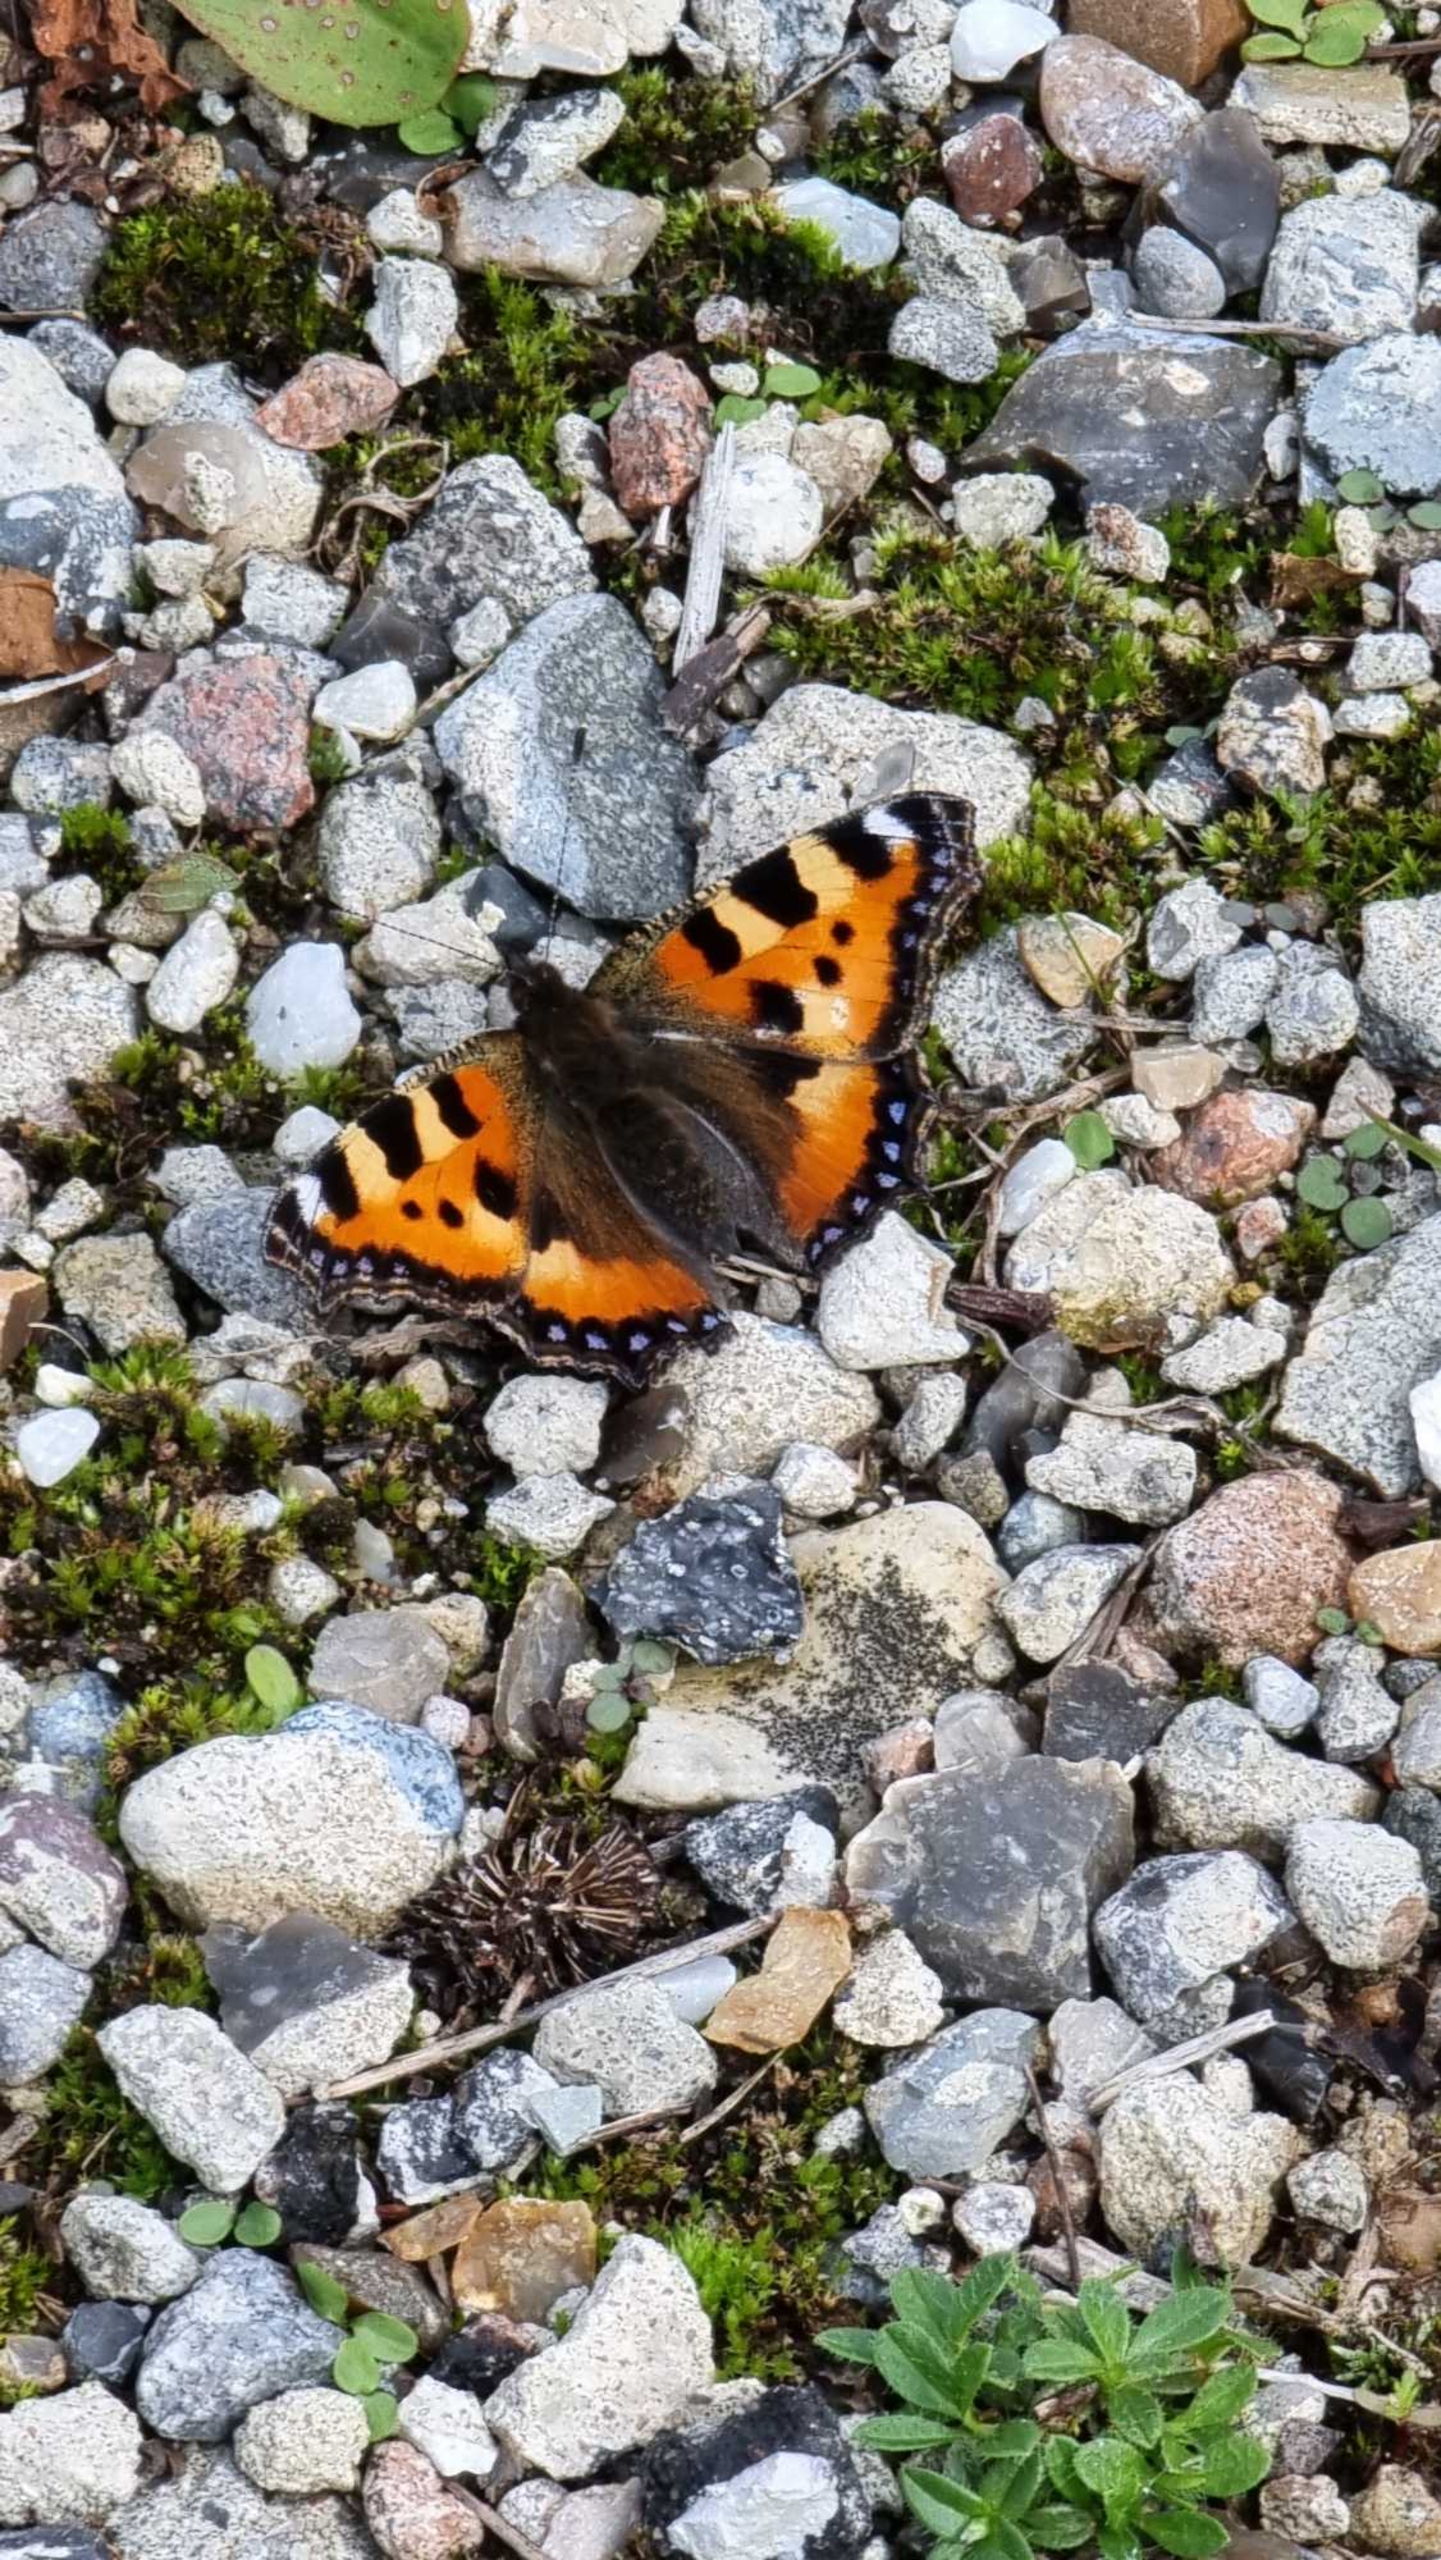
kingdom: Animalia
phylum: Arthropoda
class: Insecta
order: Lepidoptera
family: Nymphalidae
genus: Aglais
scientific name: Aglais urticae
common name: Nældens takvinge
